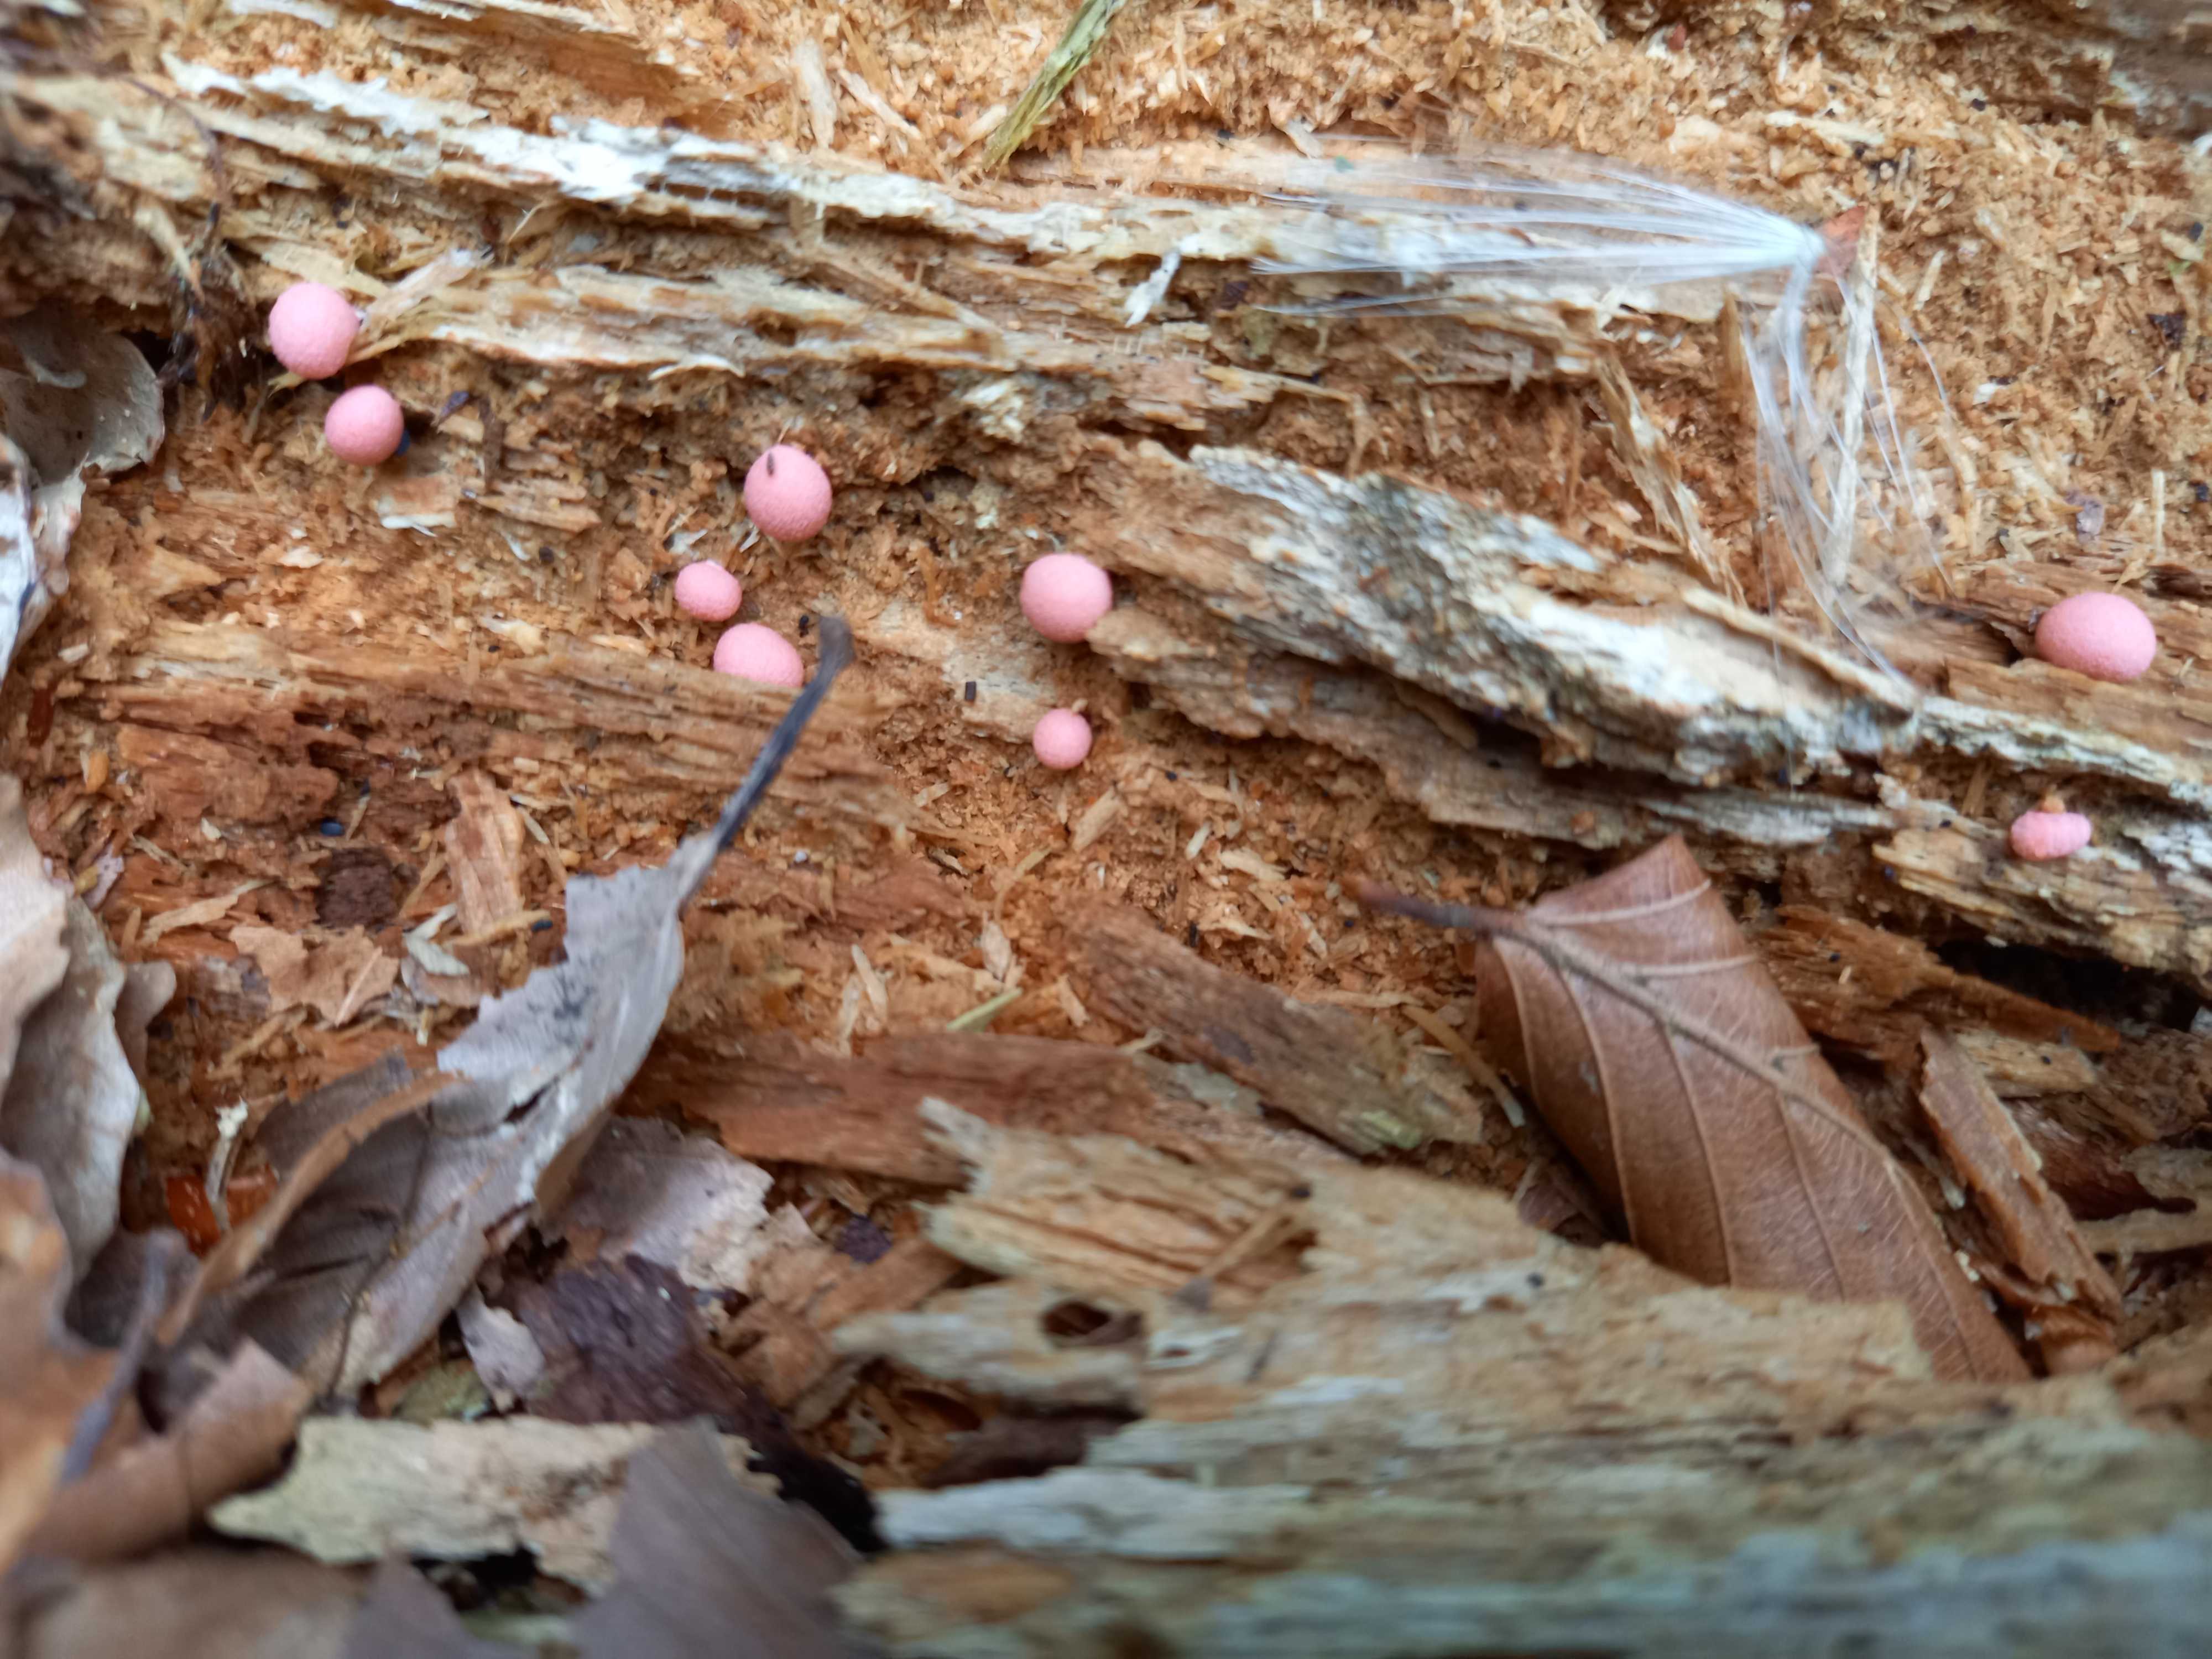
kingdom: Protozoa
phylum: Mycetozoa
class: Myxomycetes
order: Cribrariales
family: Tubiferaceae
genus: Lycogala
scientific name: Lycogala epidendrum
